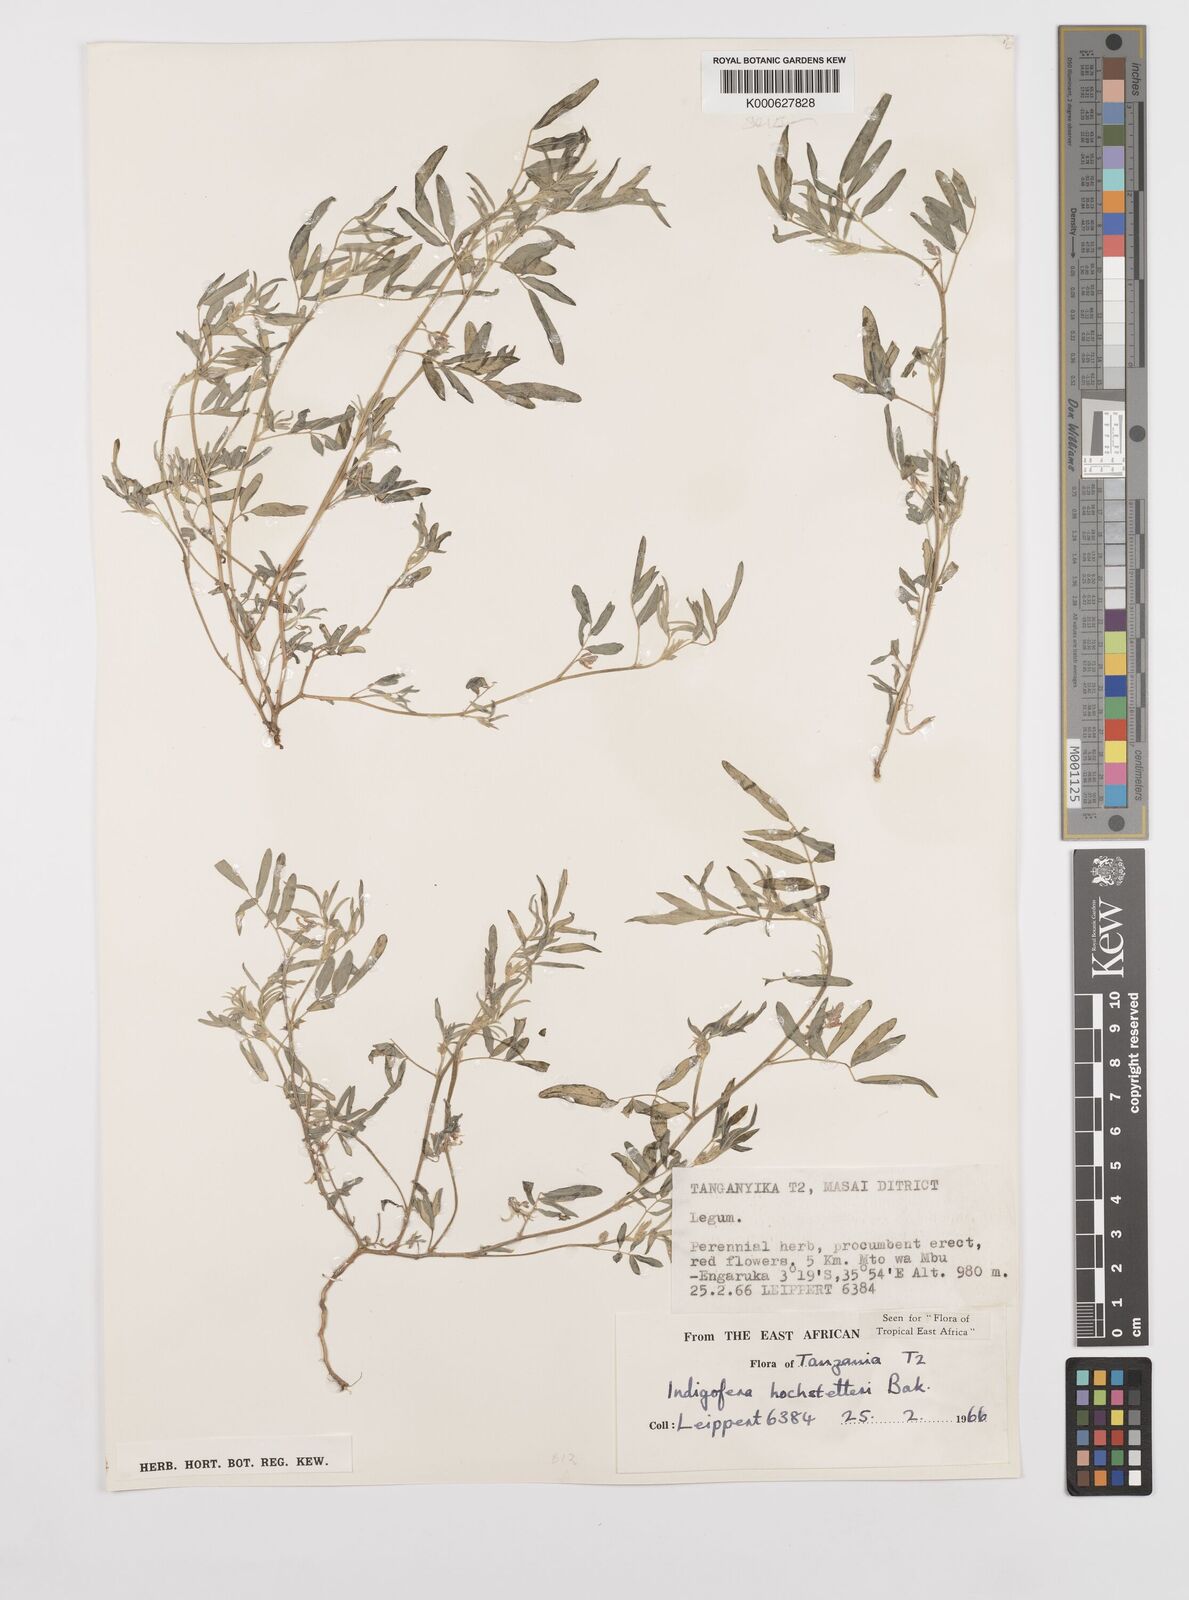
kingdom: Plantae
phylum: Tracheophyta
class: Magnoliopsida
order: Fabales
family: Fabaceae
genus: Indigofera
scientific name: Indigofera hochstetteri
